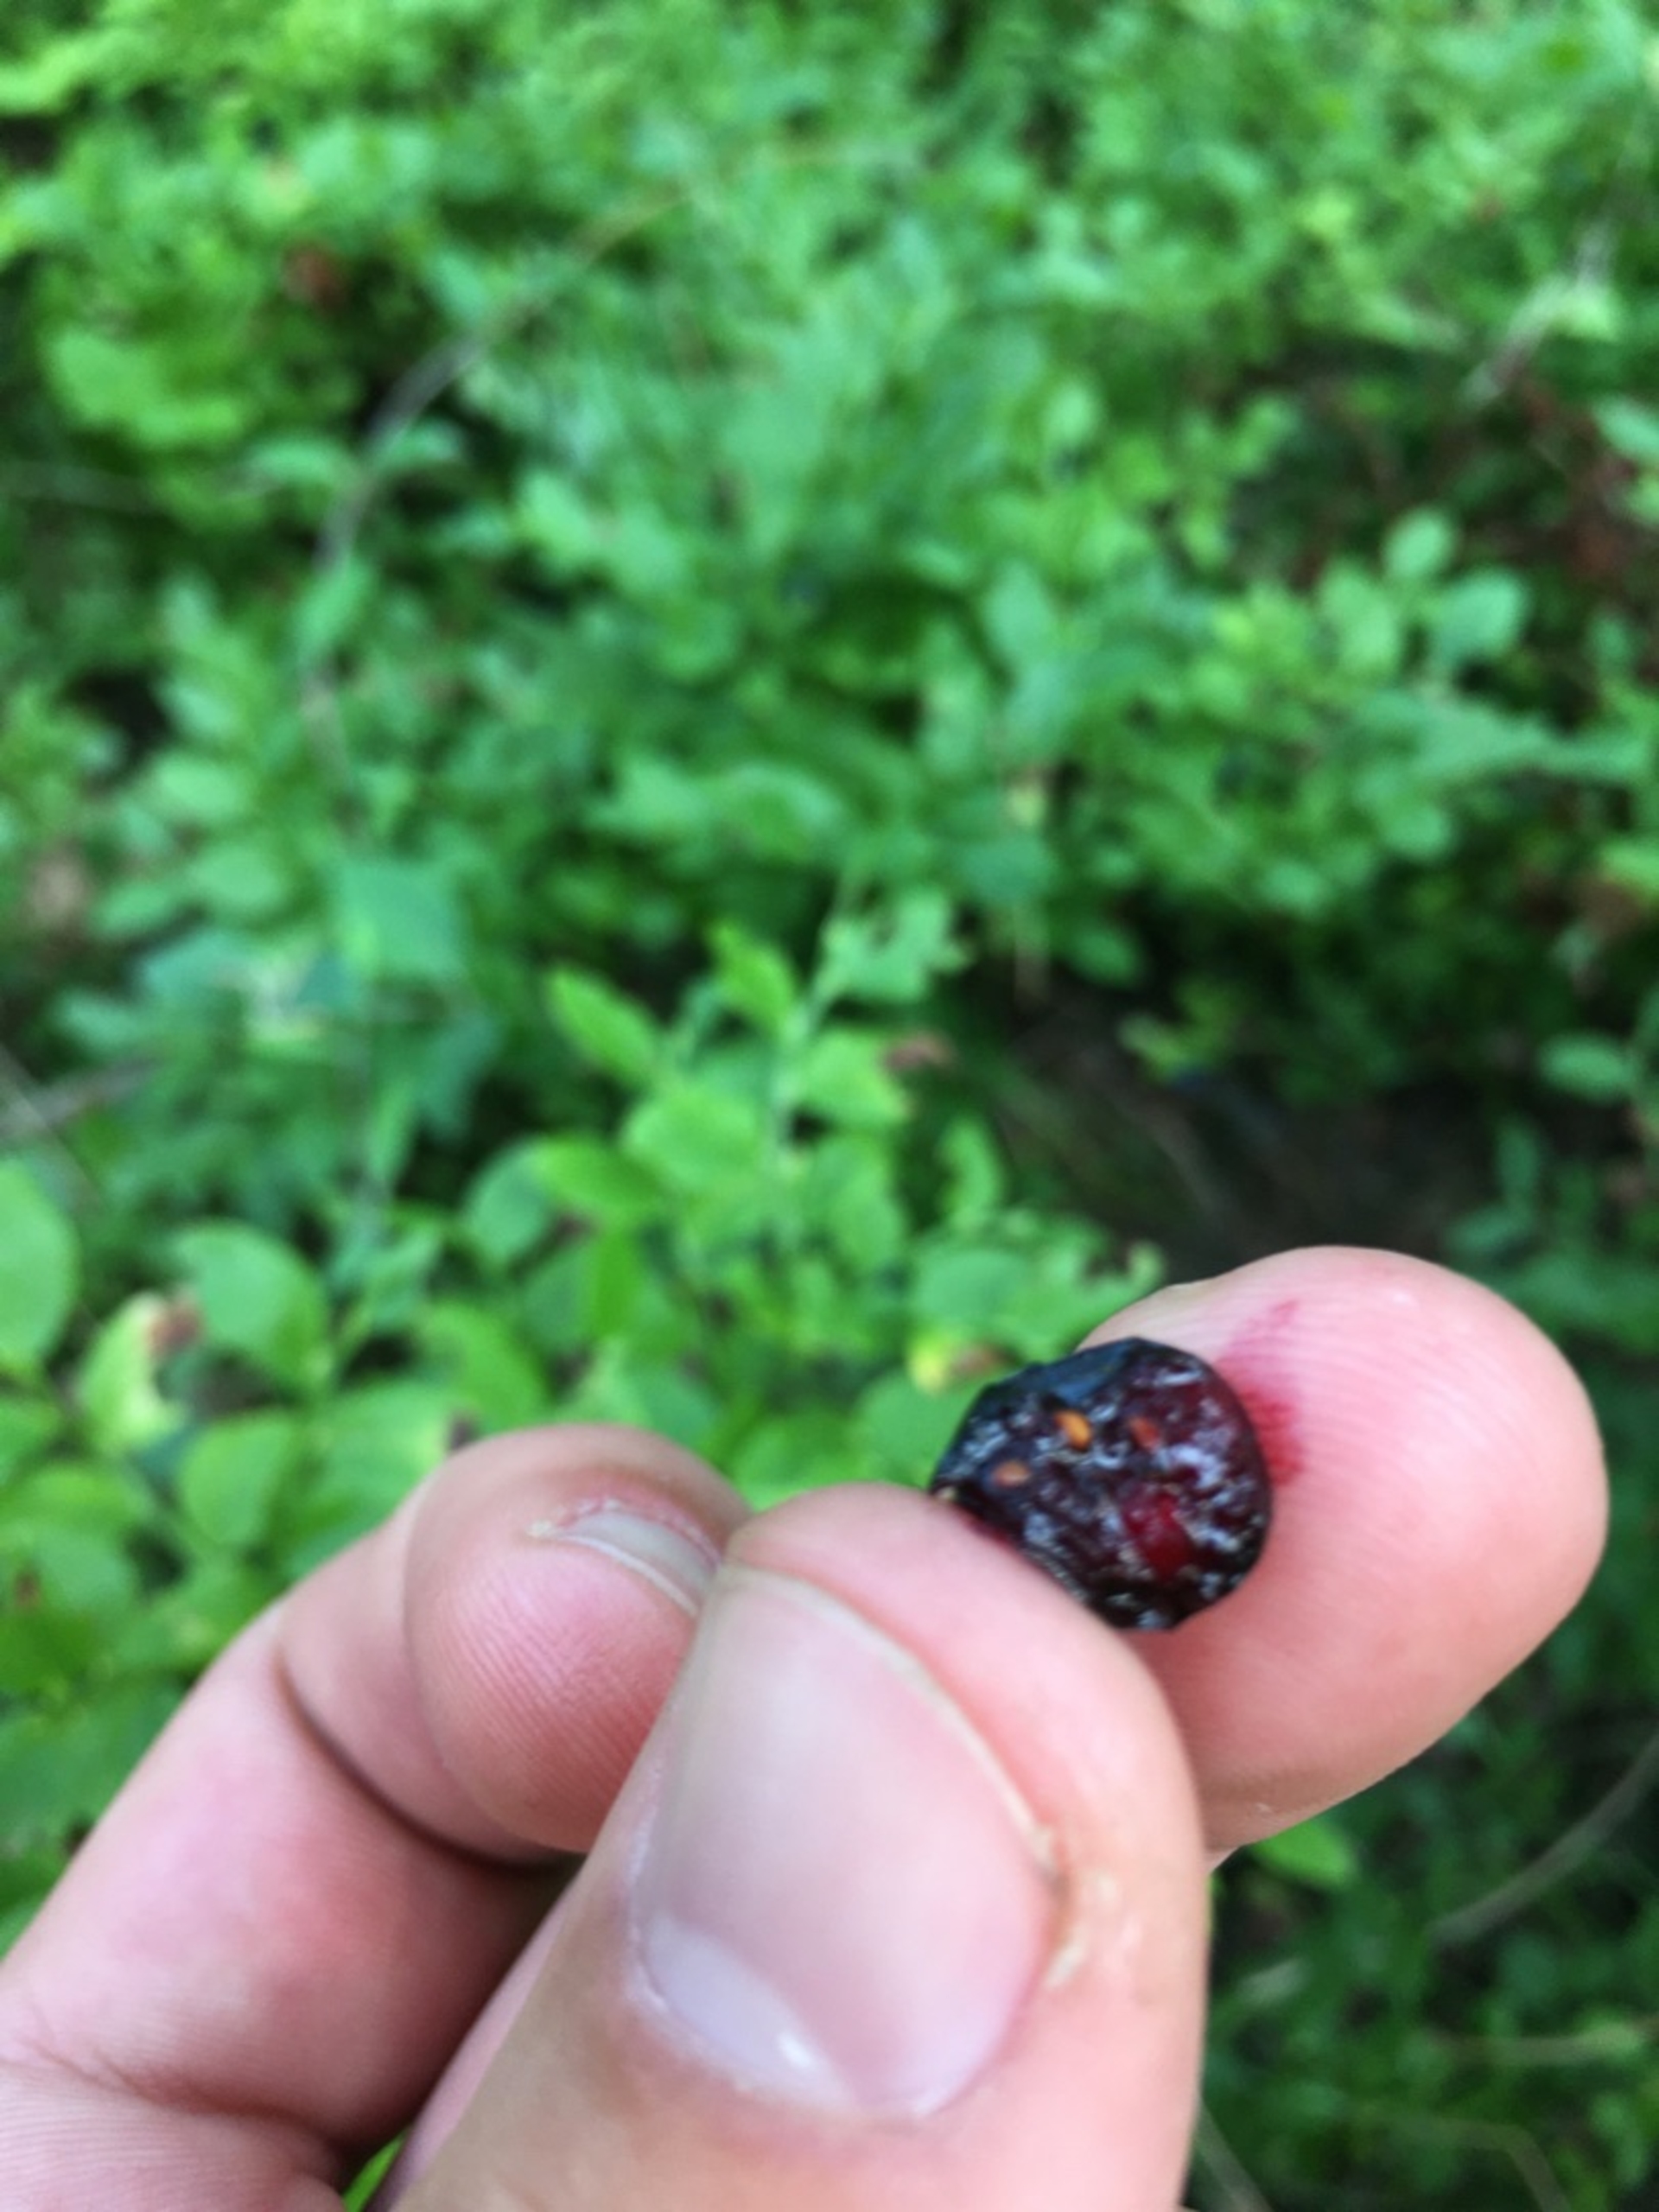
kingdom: Plantae
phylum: Tracheophyta
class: Magnoliopsida
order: Ericales
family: Ericaceae
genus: Vaccinium
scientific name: Vaccinium myrtillus
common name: Blåbær
